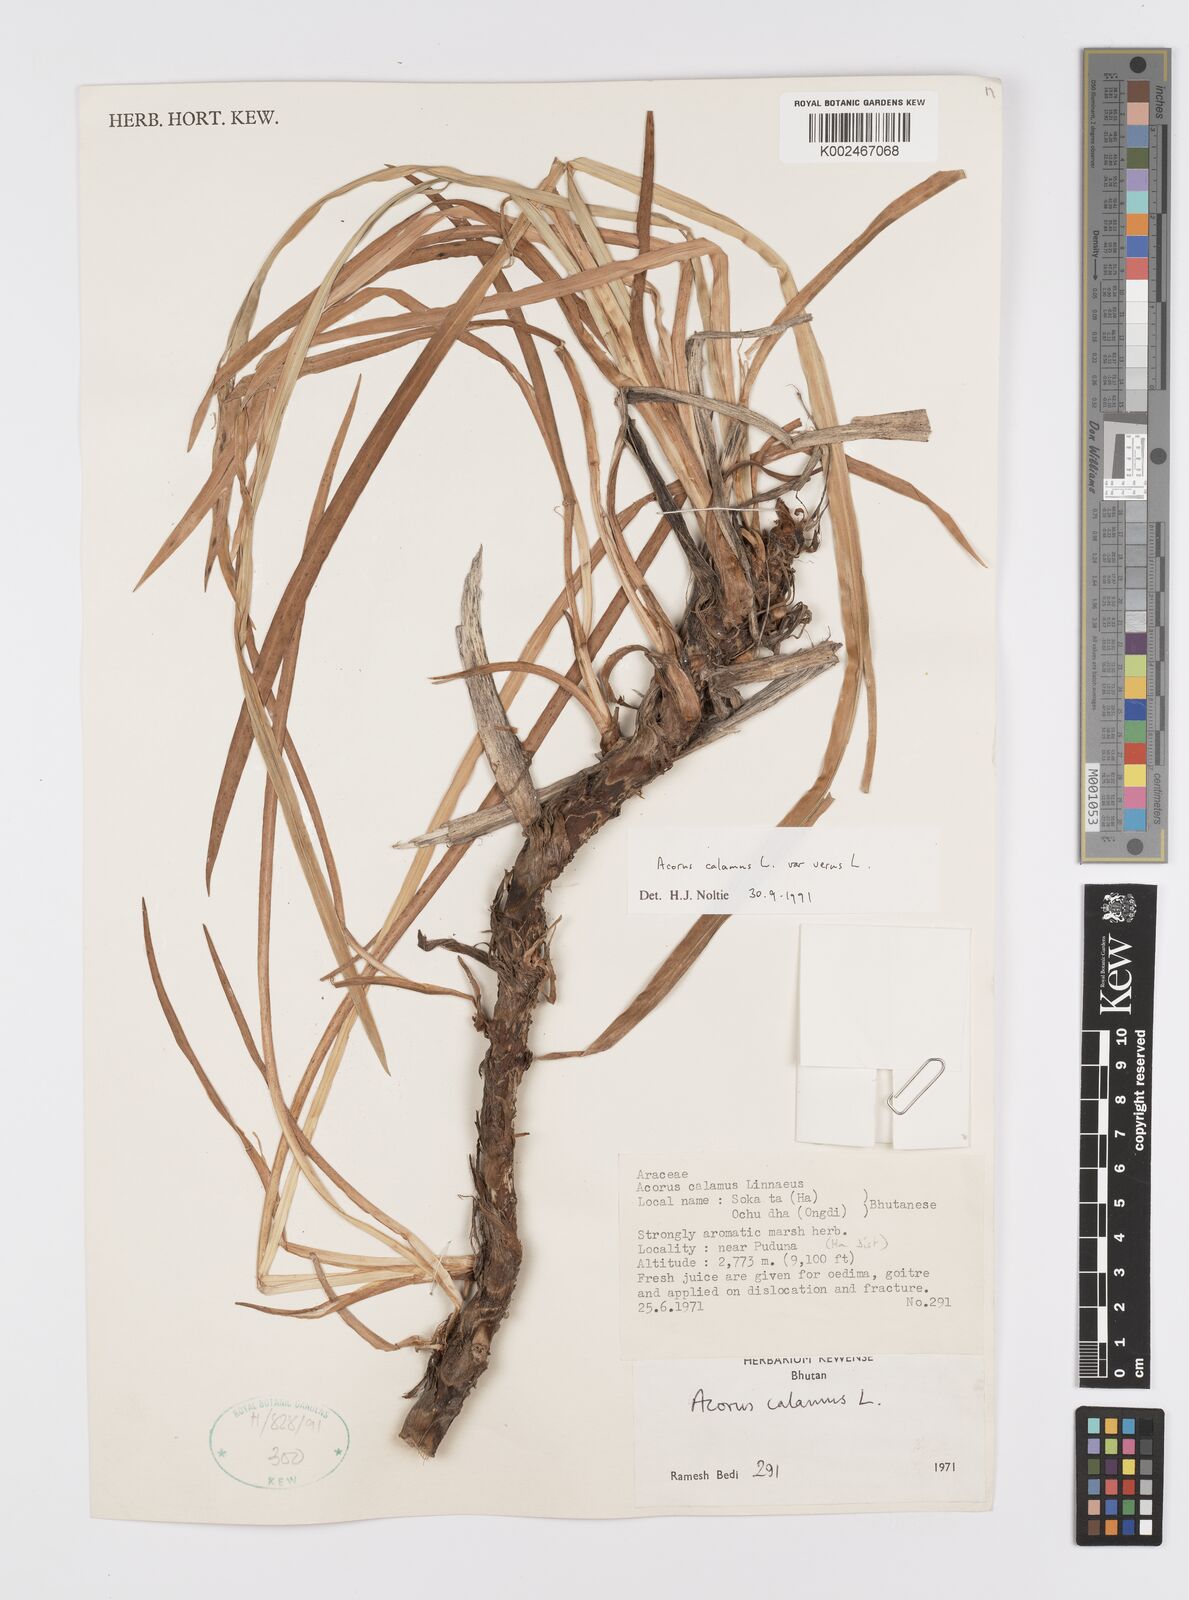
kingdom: Plantae
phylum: Tracheophyta
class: Liliopsida
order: Acorales
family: Acoraceae
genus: Acorus
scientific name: Acorus calamus
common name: Sweet-flag
